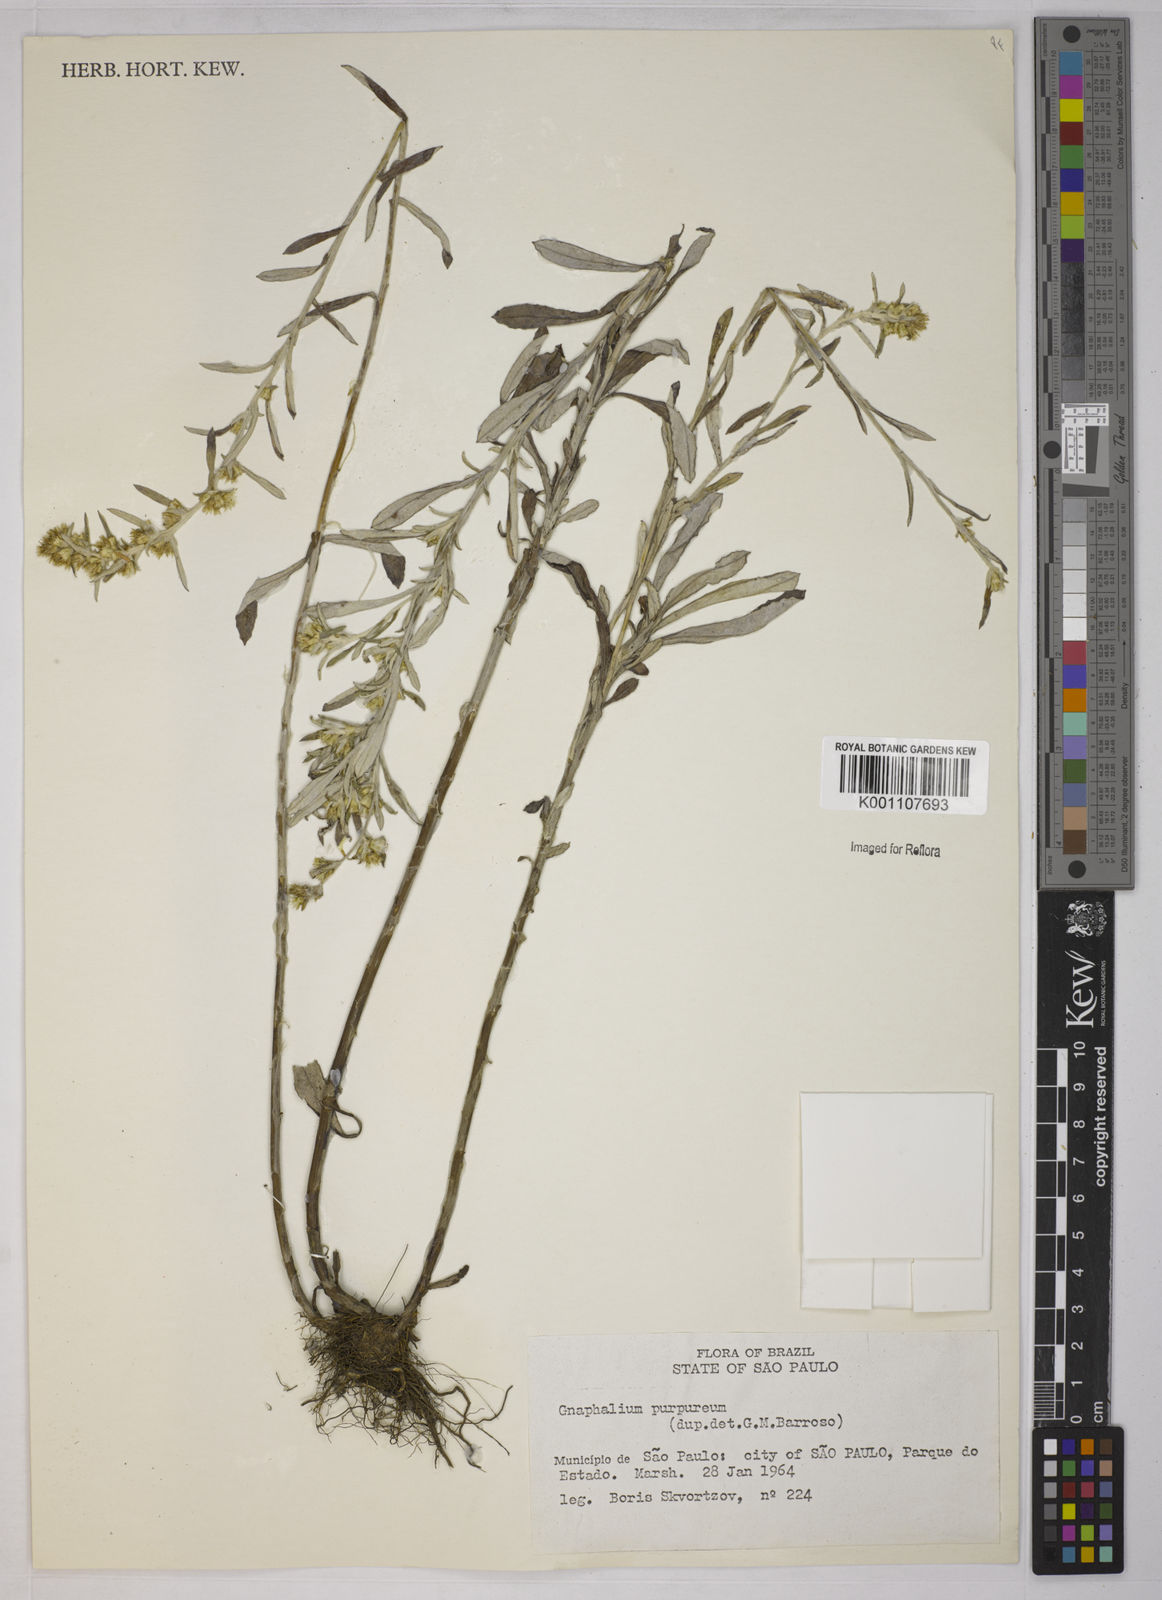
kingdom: Plantae
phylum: Tracheophyta
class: Magnoliopsida
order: Asterales
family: Asteraceae
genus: Gamochaeta
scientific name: Gamochaeta purpurea
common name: Purple cudweed
